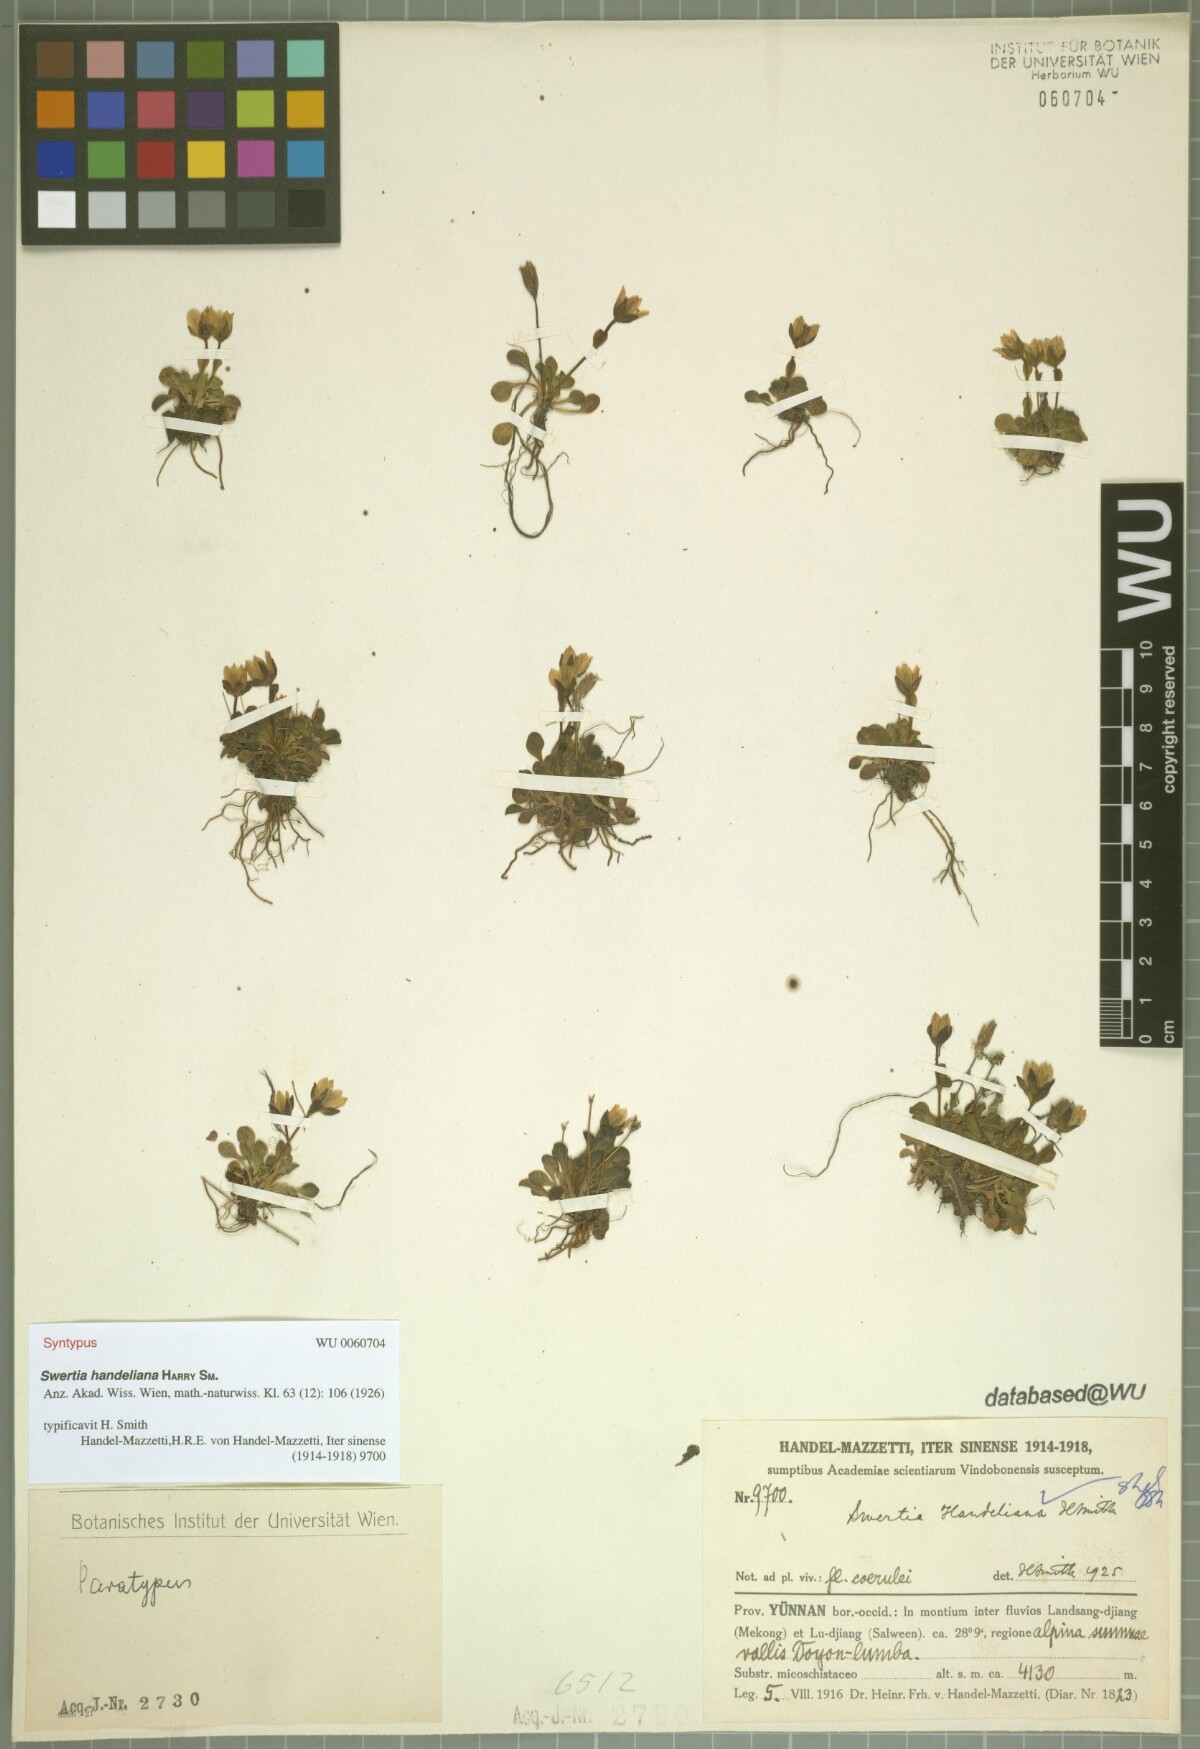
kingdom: Plantae
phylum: Tracheophyta
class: Magnoliopsida
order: Gentianales
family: Gentianaceae
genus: Swertia
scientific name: Swertia handeliana
